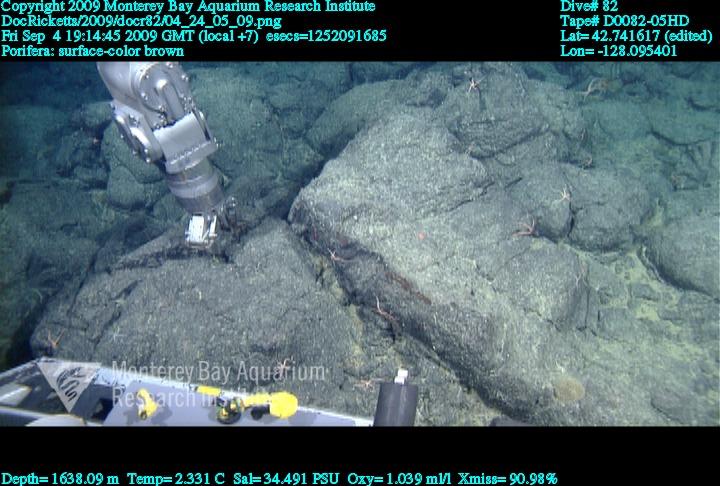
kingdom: Animalia
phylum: Porifera
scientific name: Porifera
